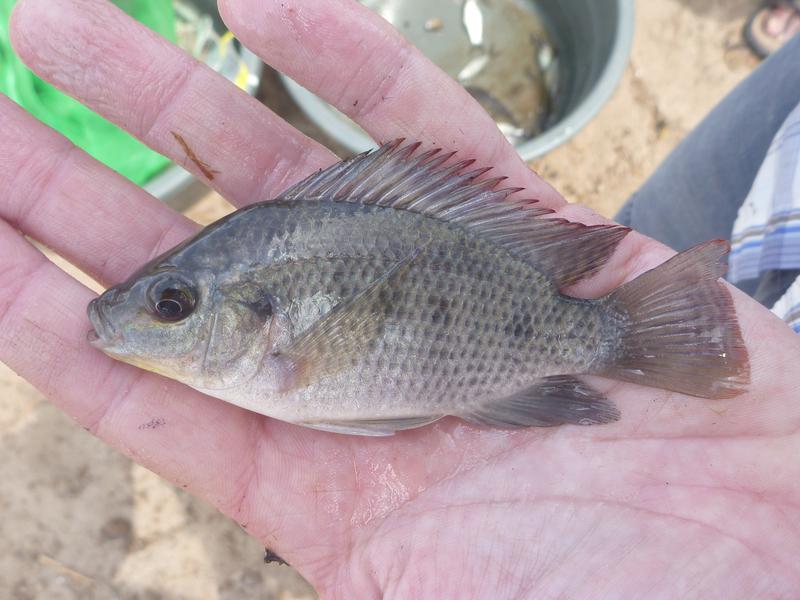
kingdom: Animalia
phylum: Chordata
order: Perciformes
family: Cichlidae
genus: Oreochromis
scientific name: Oreochromis urolepis
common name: Wami tilapia
